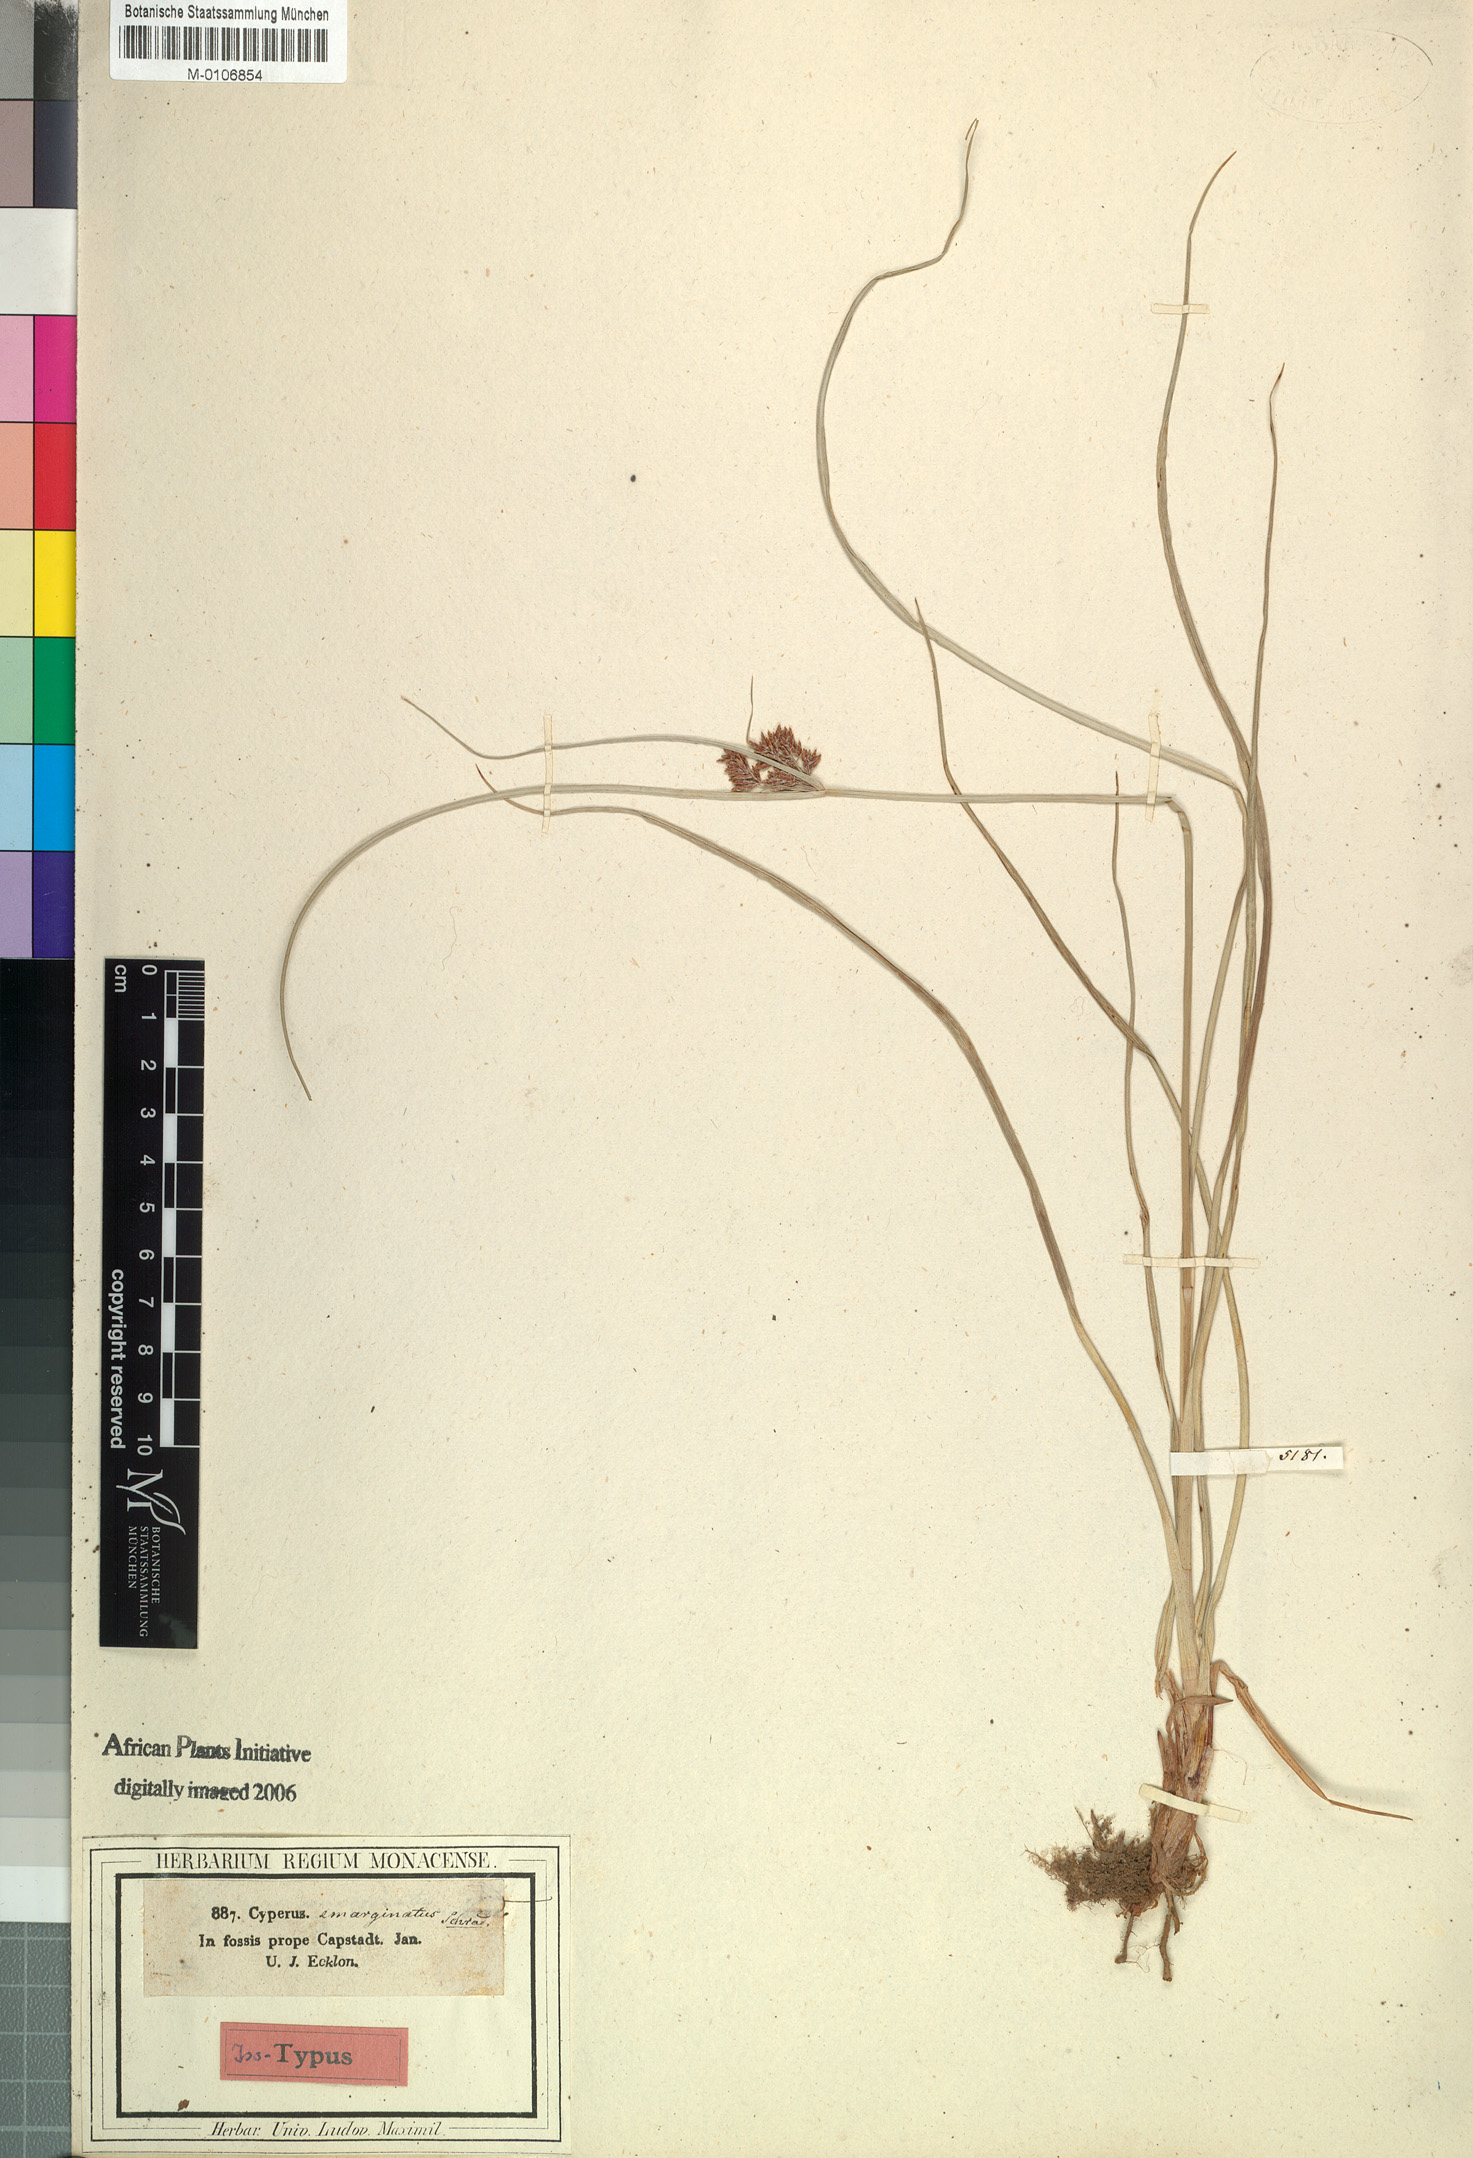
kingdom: Plantae
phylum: Tracheophyta
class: Liliopsida
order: Poales
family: Cyperaceae
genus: Cyperus
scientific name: Cyperus longus
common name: Galingale
